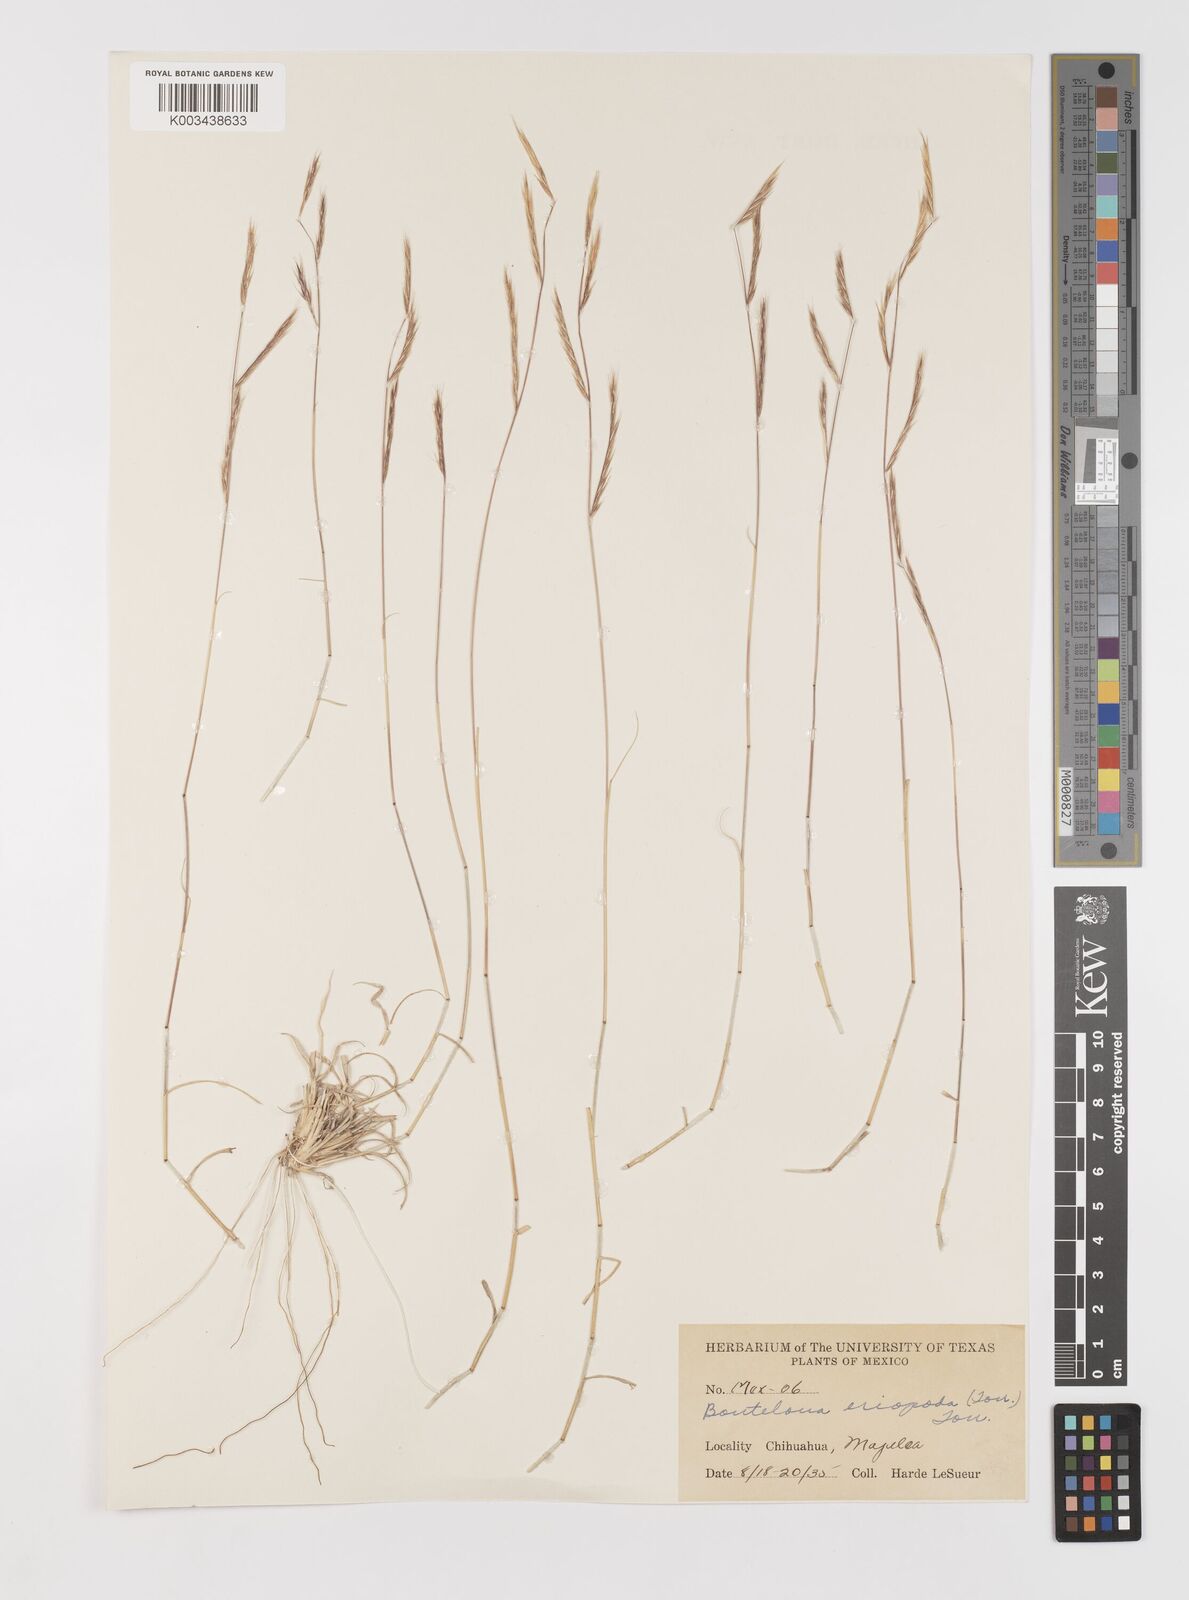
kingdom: Plantae
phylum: Tracheophyta
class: Liliopsida
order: Poales
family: Poaceae
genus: Bouteloua
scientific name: Bouteloua eriopoda
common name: Woolly foot grama
